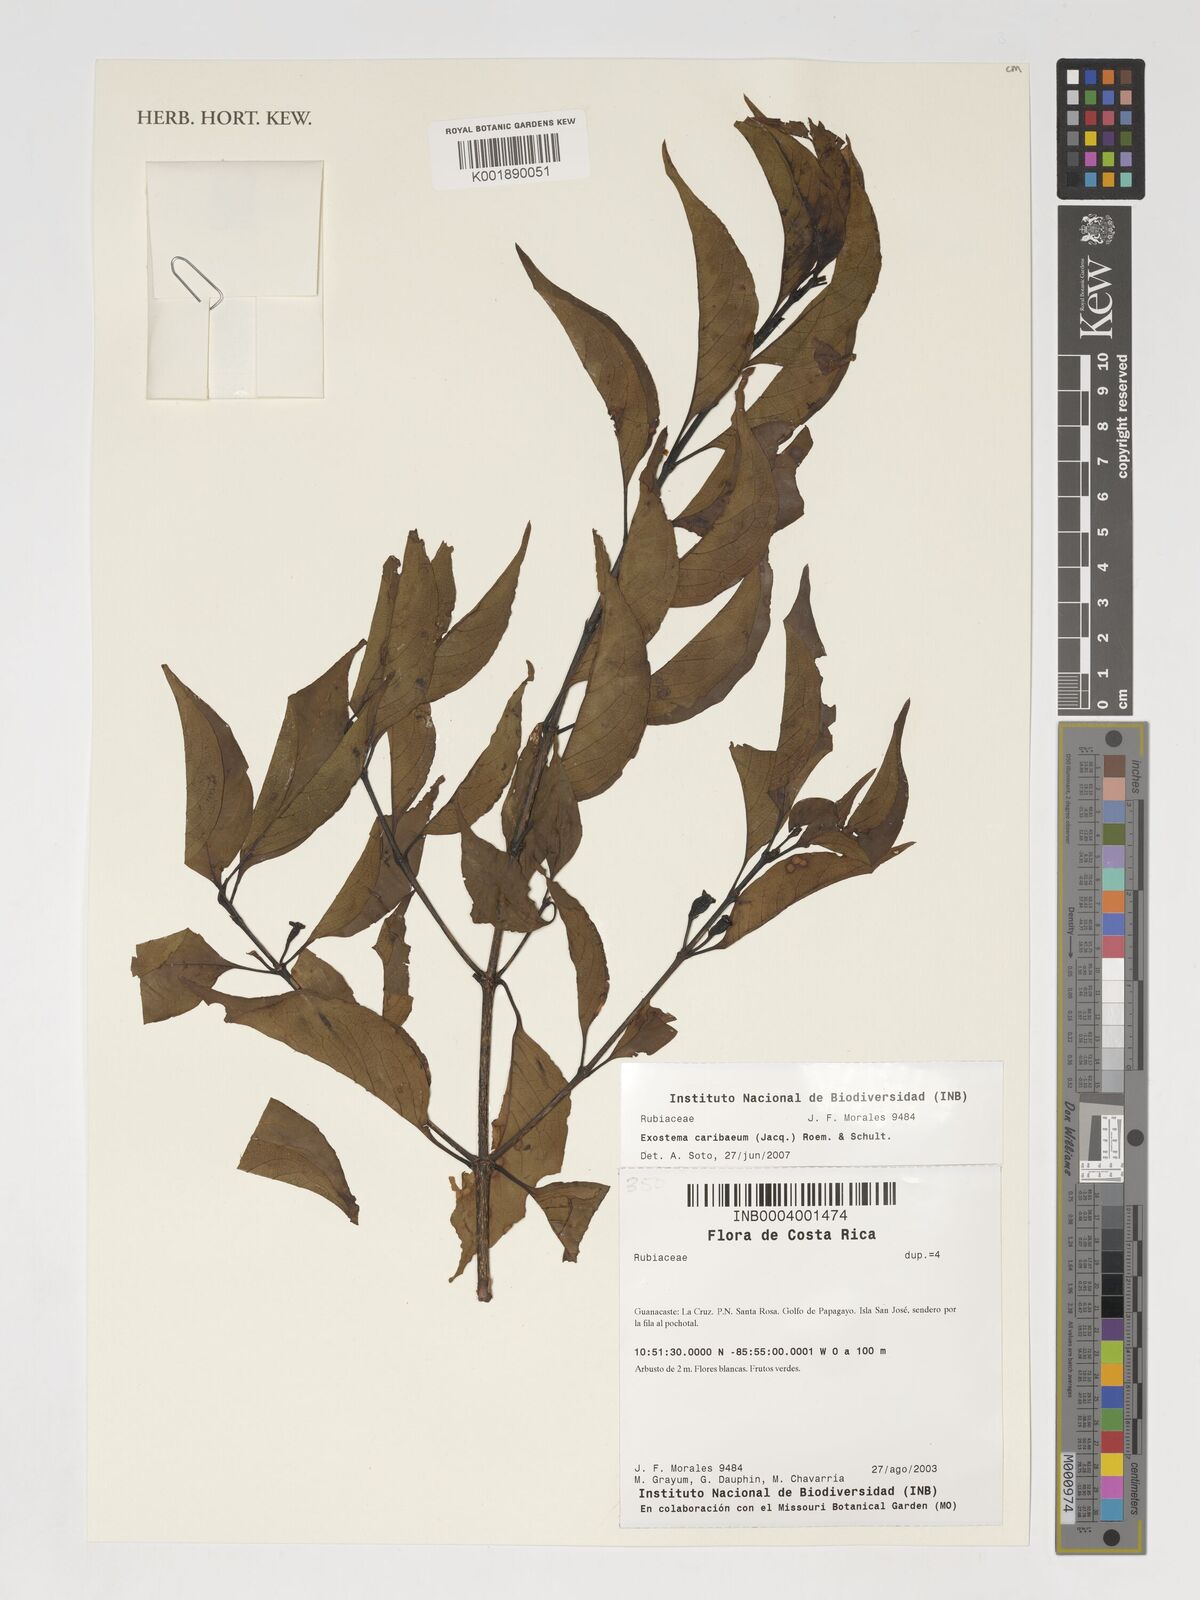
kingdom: Plantae
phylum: Tracheophyta
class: Magnoliopsida
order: Gentianales
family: Rubiaceae
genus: Exostema
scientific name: Exostema caribaeum
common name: Princewood
